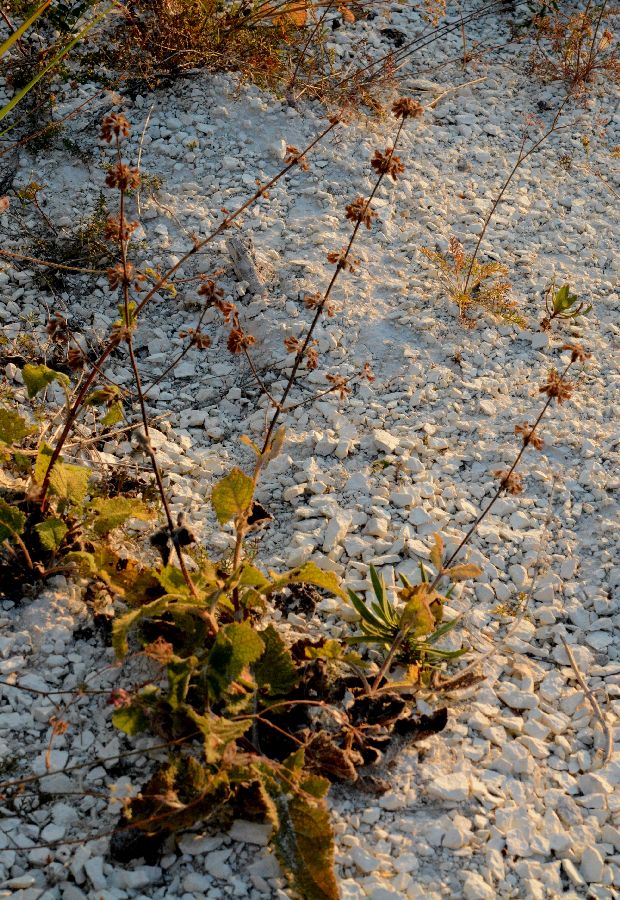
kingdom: Plantae
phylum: Tracheophyta
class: Magnoliopsida
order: Lamiales
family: Lamiaceae
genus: Salvia
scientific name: Salvia verticillata
